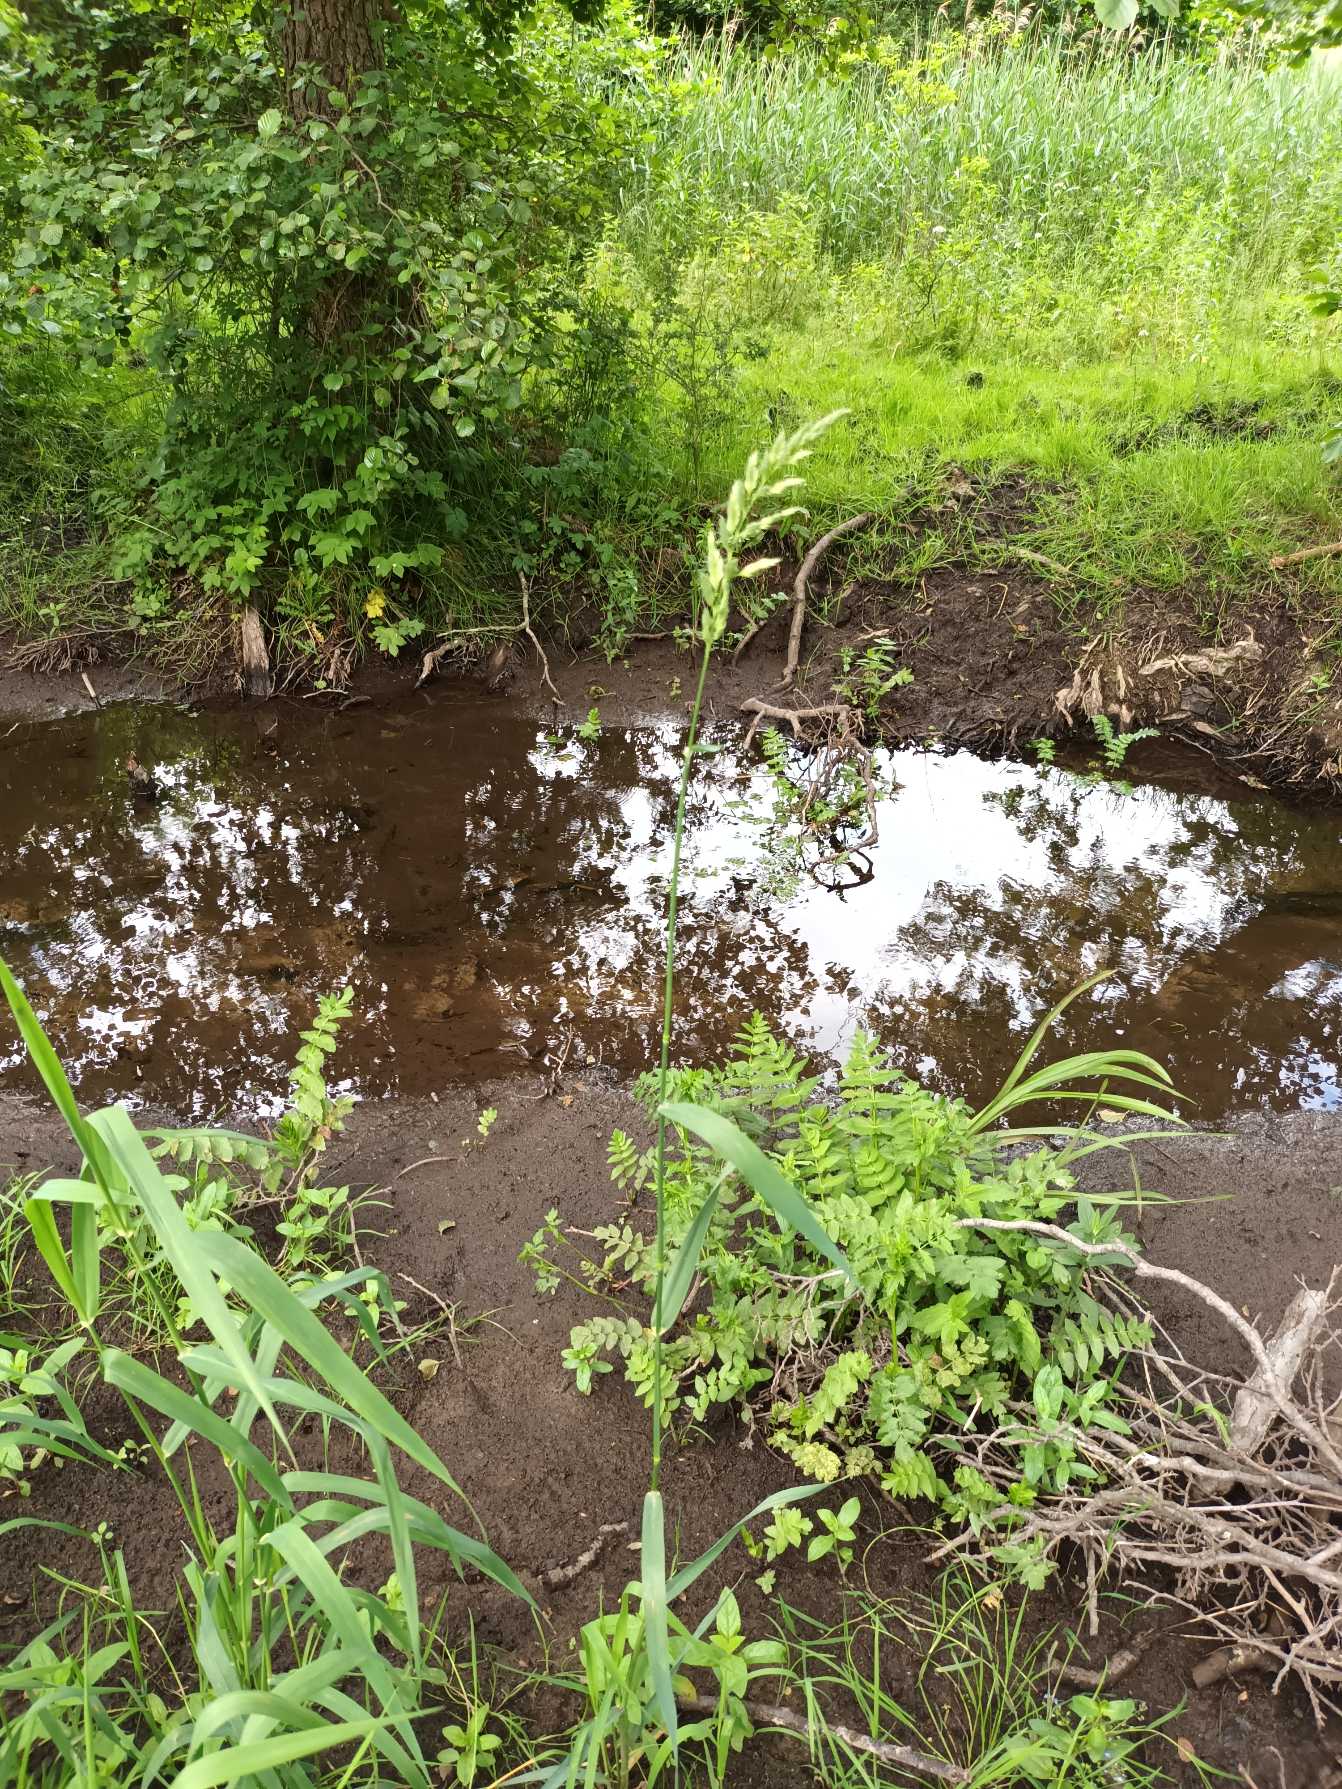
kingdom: Plantae
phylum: Tracheophyta
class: Liliopsida
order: Poales
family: Poaceae
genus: Phalaris
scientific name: Phalaris arundinacea
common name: Rørgræs
